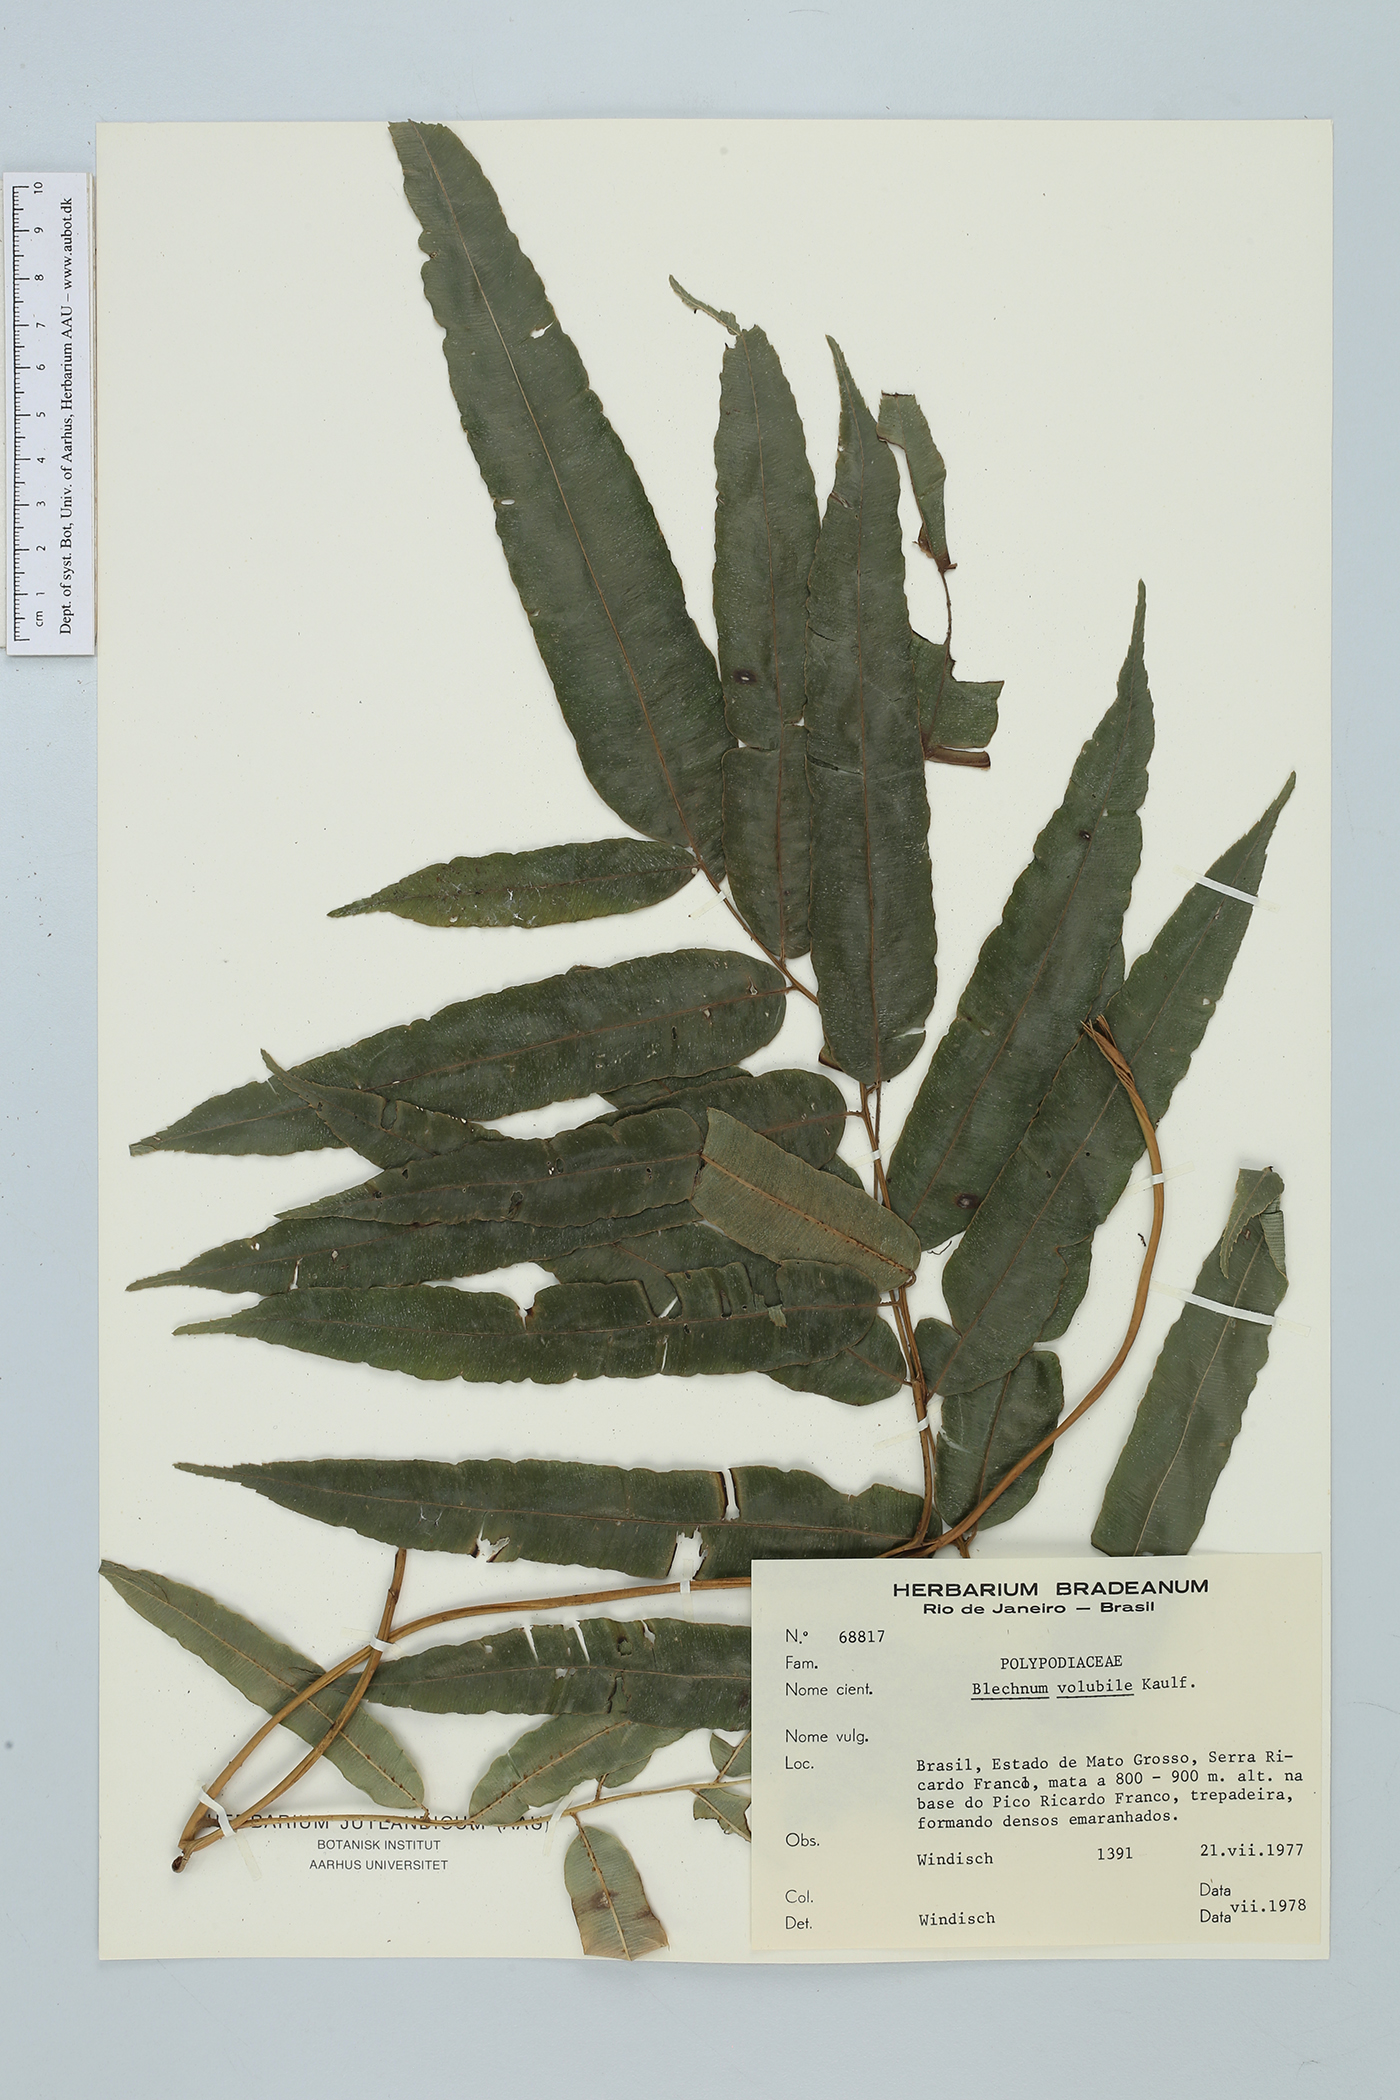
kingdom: Plantae
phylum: Tracheophyta
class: Polypodiopsida
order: Polypodiales
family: Blechnaceae
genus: Salpichlaena
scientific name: Salpichlaena papyrus
